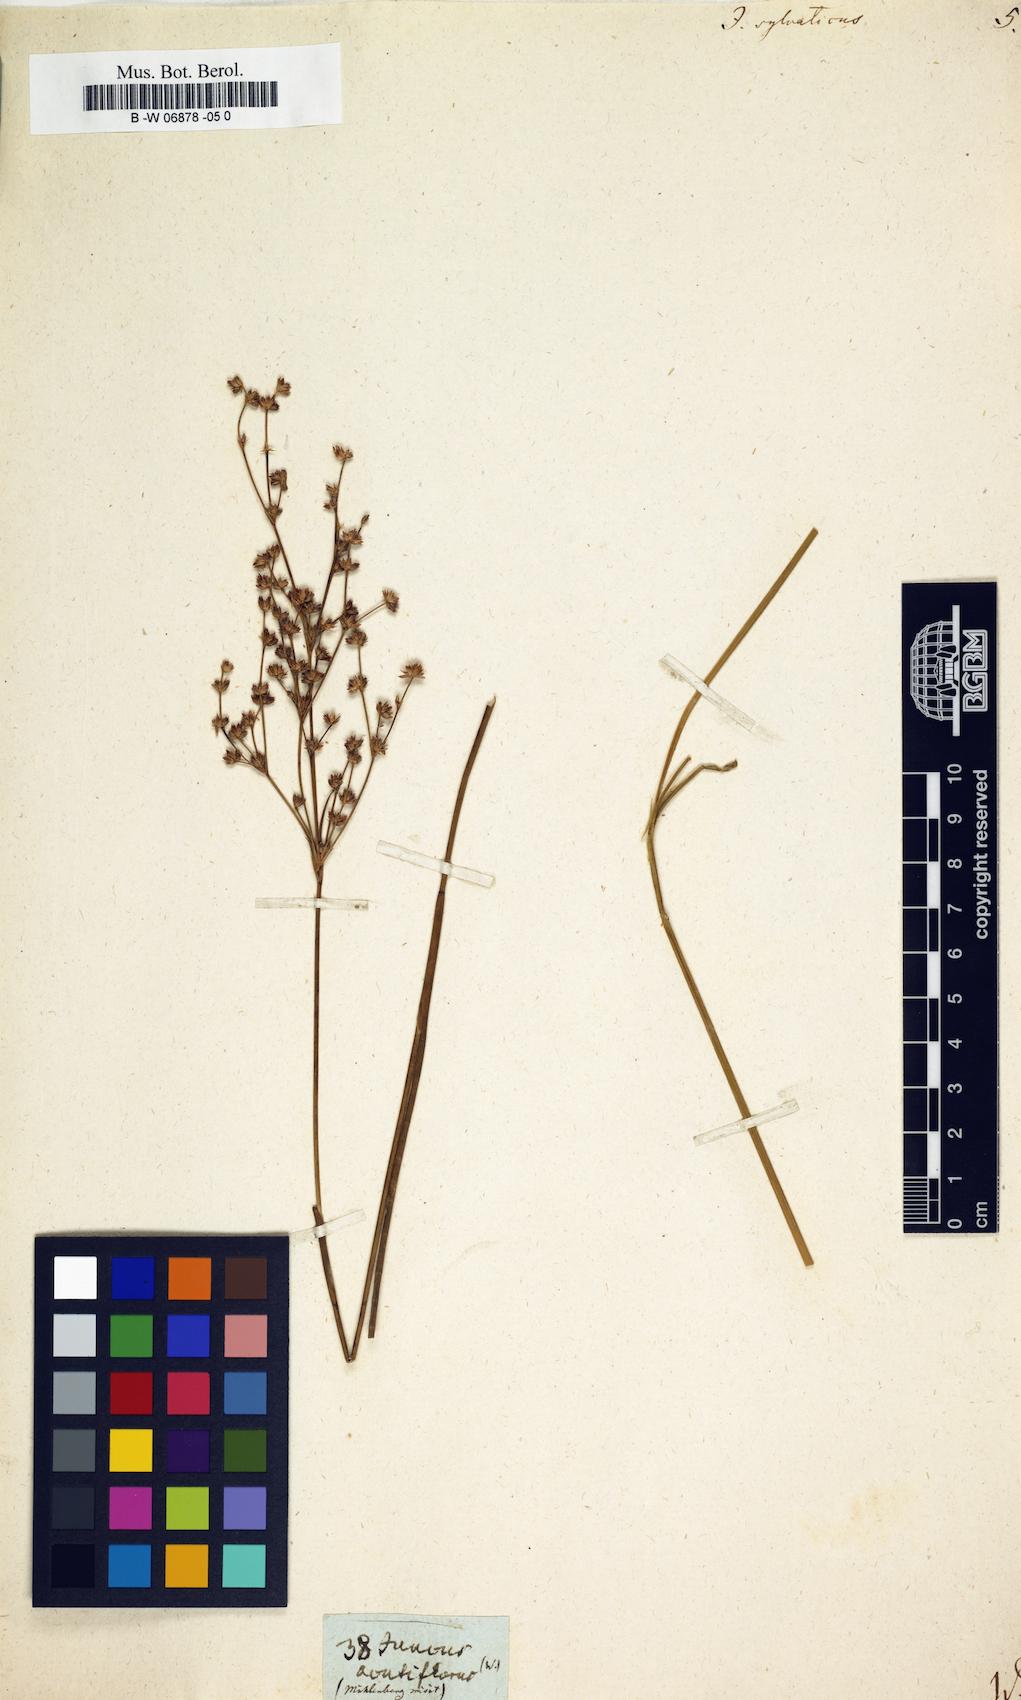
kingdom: Plantae
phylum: Tracheophyta
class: Liliopsida
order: Poales
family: Juncaceae
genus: Luzula
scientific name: Luzula sylvatica
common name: Great wood-rush
